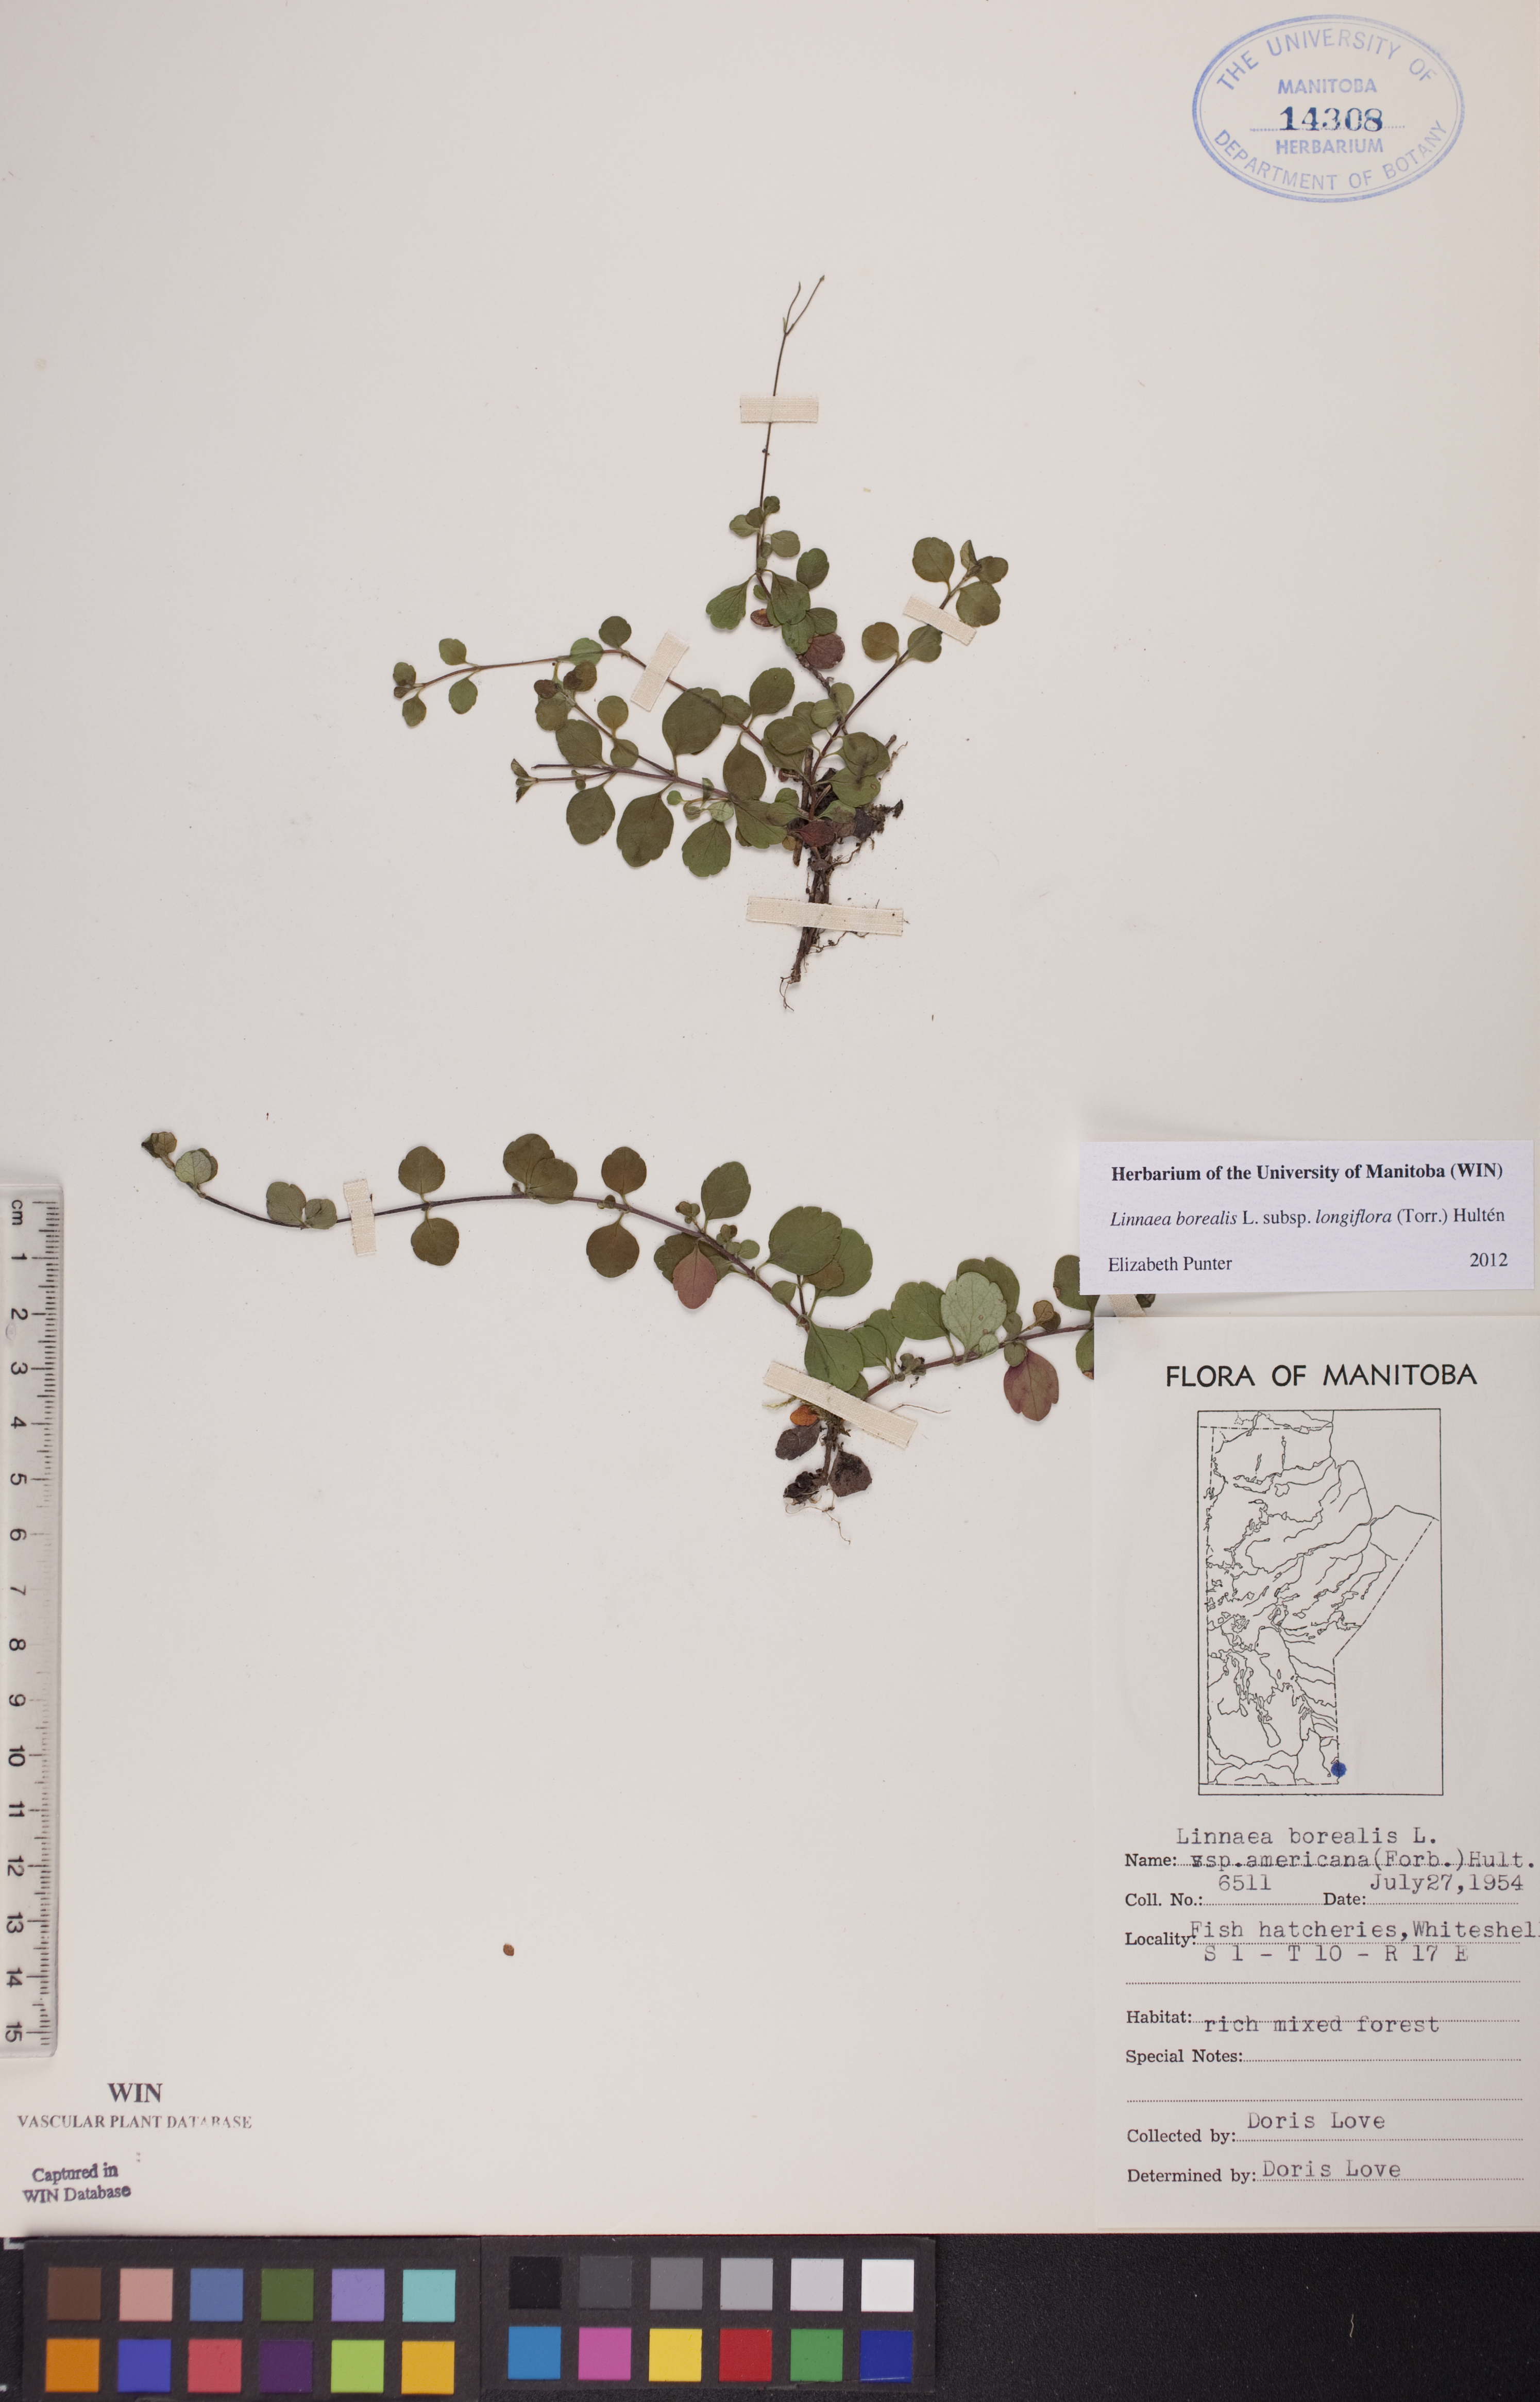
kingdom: Plantae
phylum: Tracheophyta
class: Magnoliopsida
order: Dipsacales
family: Caprifoliaceae
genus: Linnaea
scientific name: Linnaea borealis
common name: Twinflower
